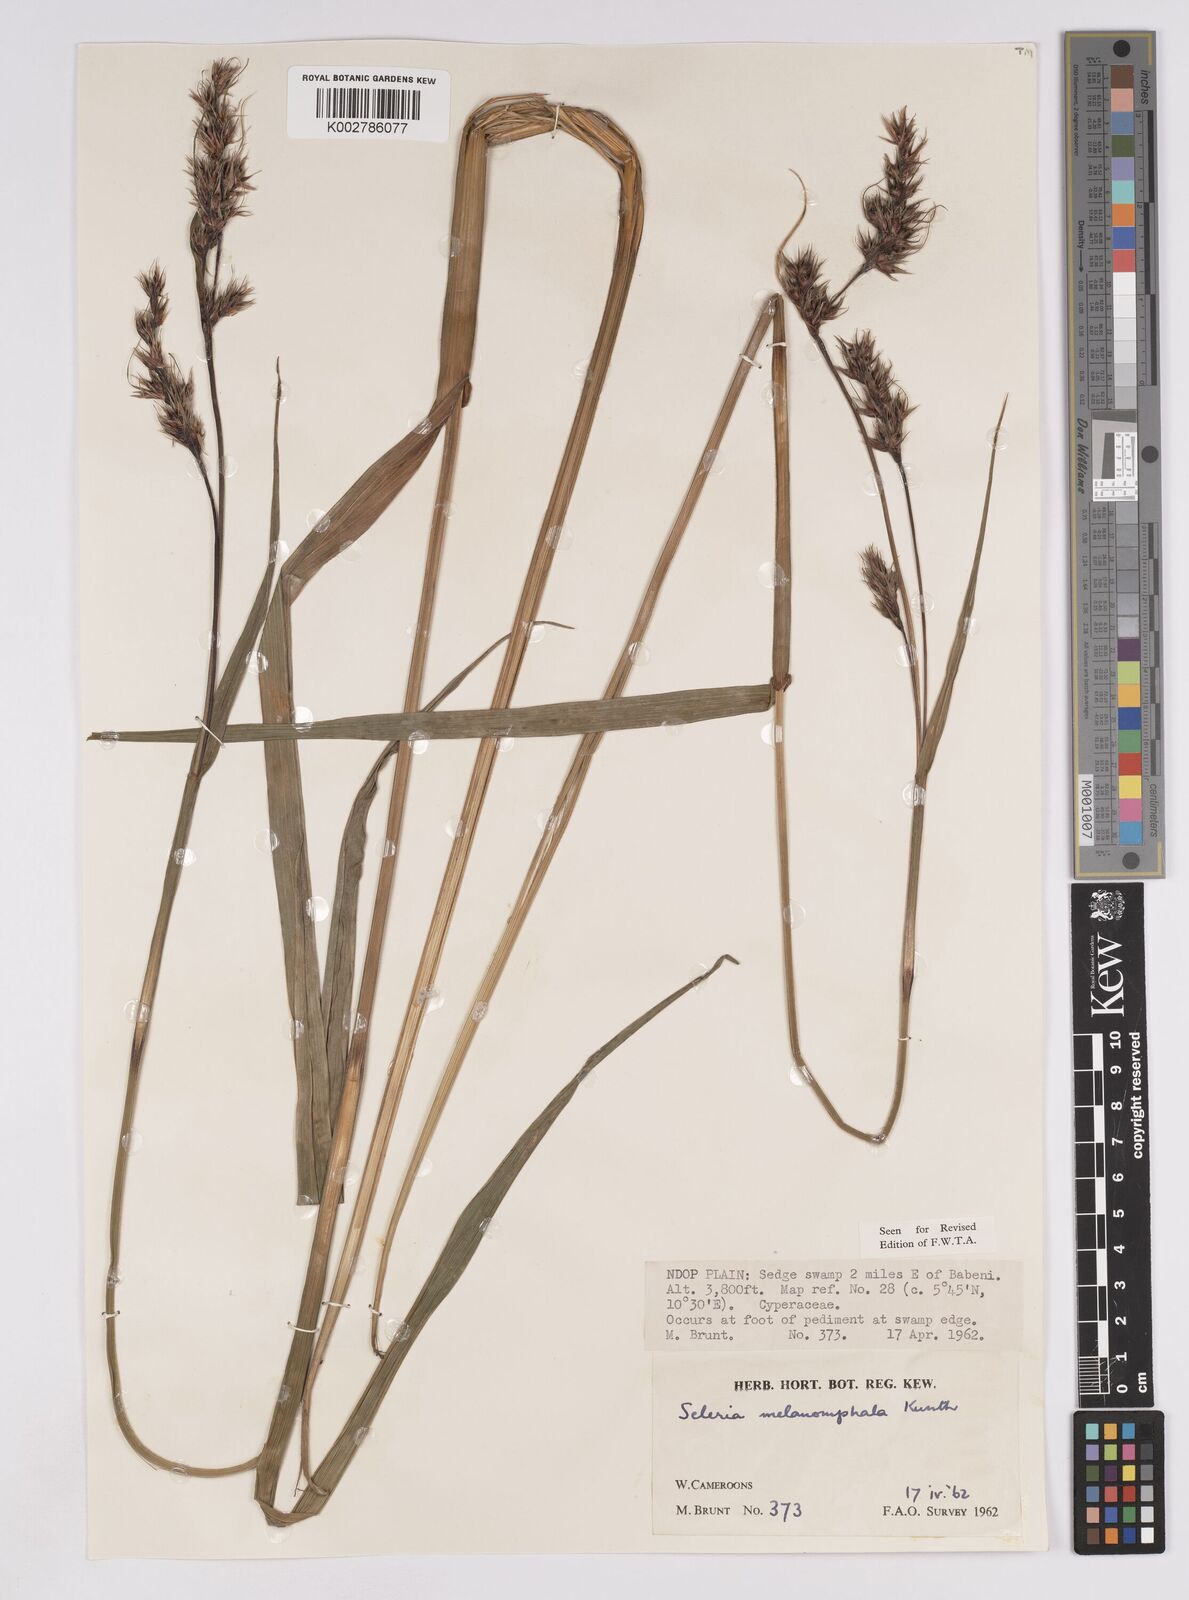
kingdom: Plantae
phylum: Tracheophyta
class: Liliopsida
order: Poales
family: Cyperaceae
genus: Scleria
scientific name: Scleria melanomphala
